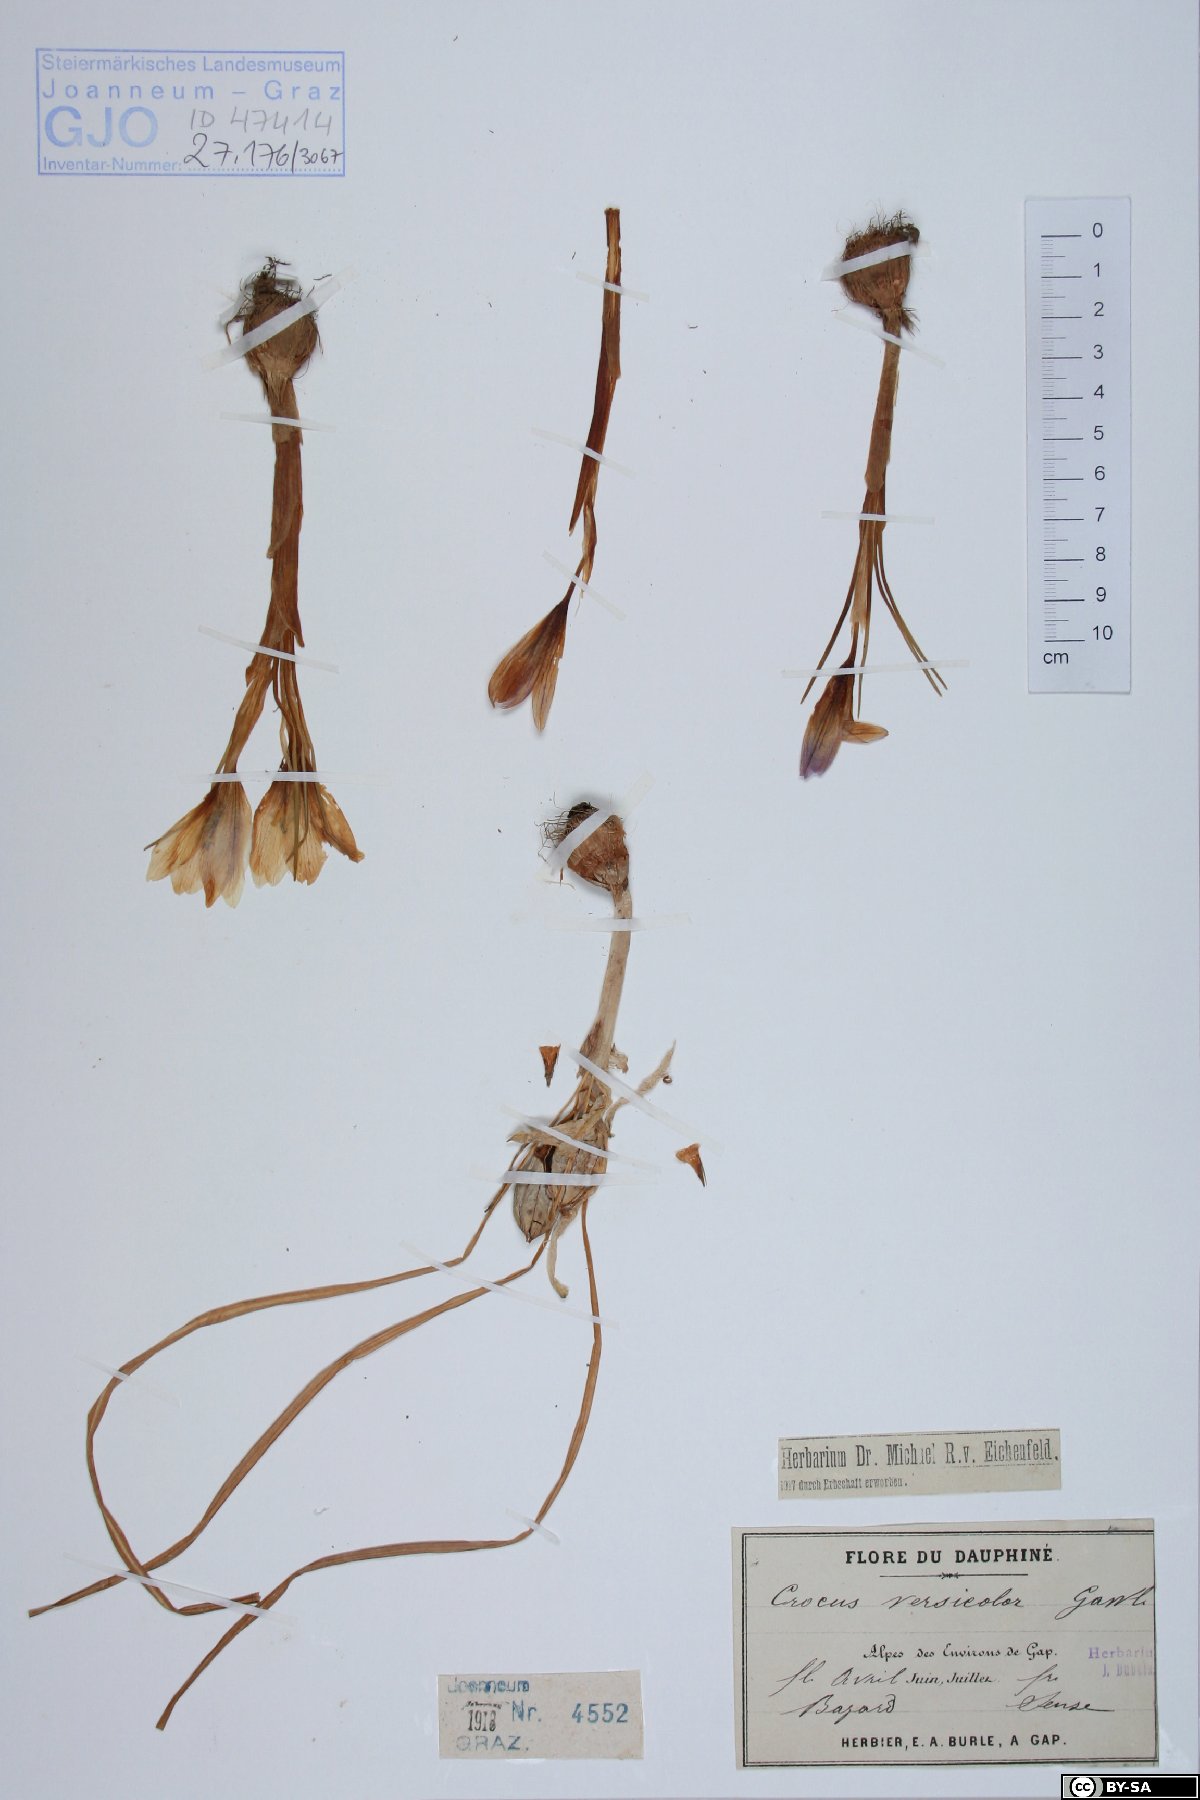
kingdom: Plantae
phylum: Tracheophyta
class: Liliopsida
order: Asparagales
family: Iridaceae
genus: Crocus
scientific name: Crocus versicolor
